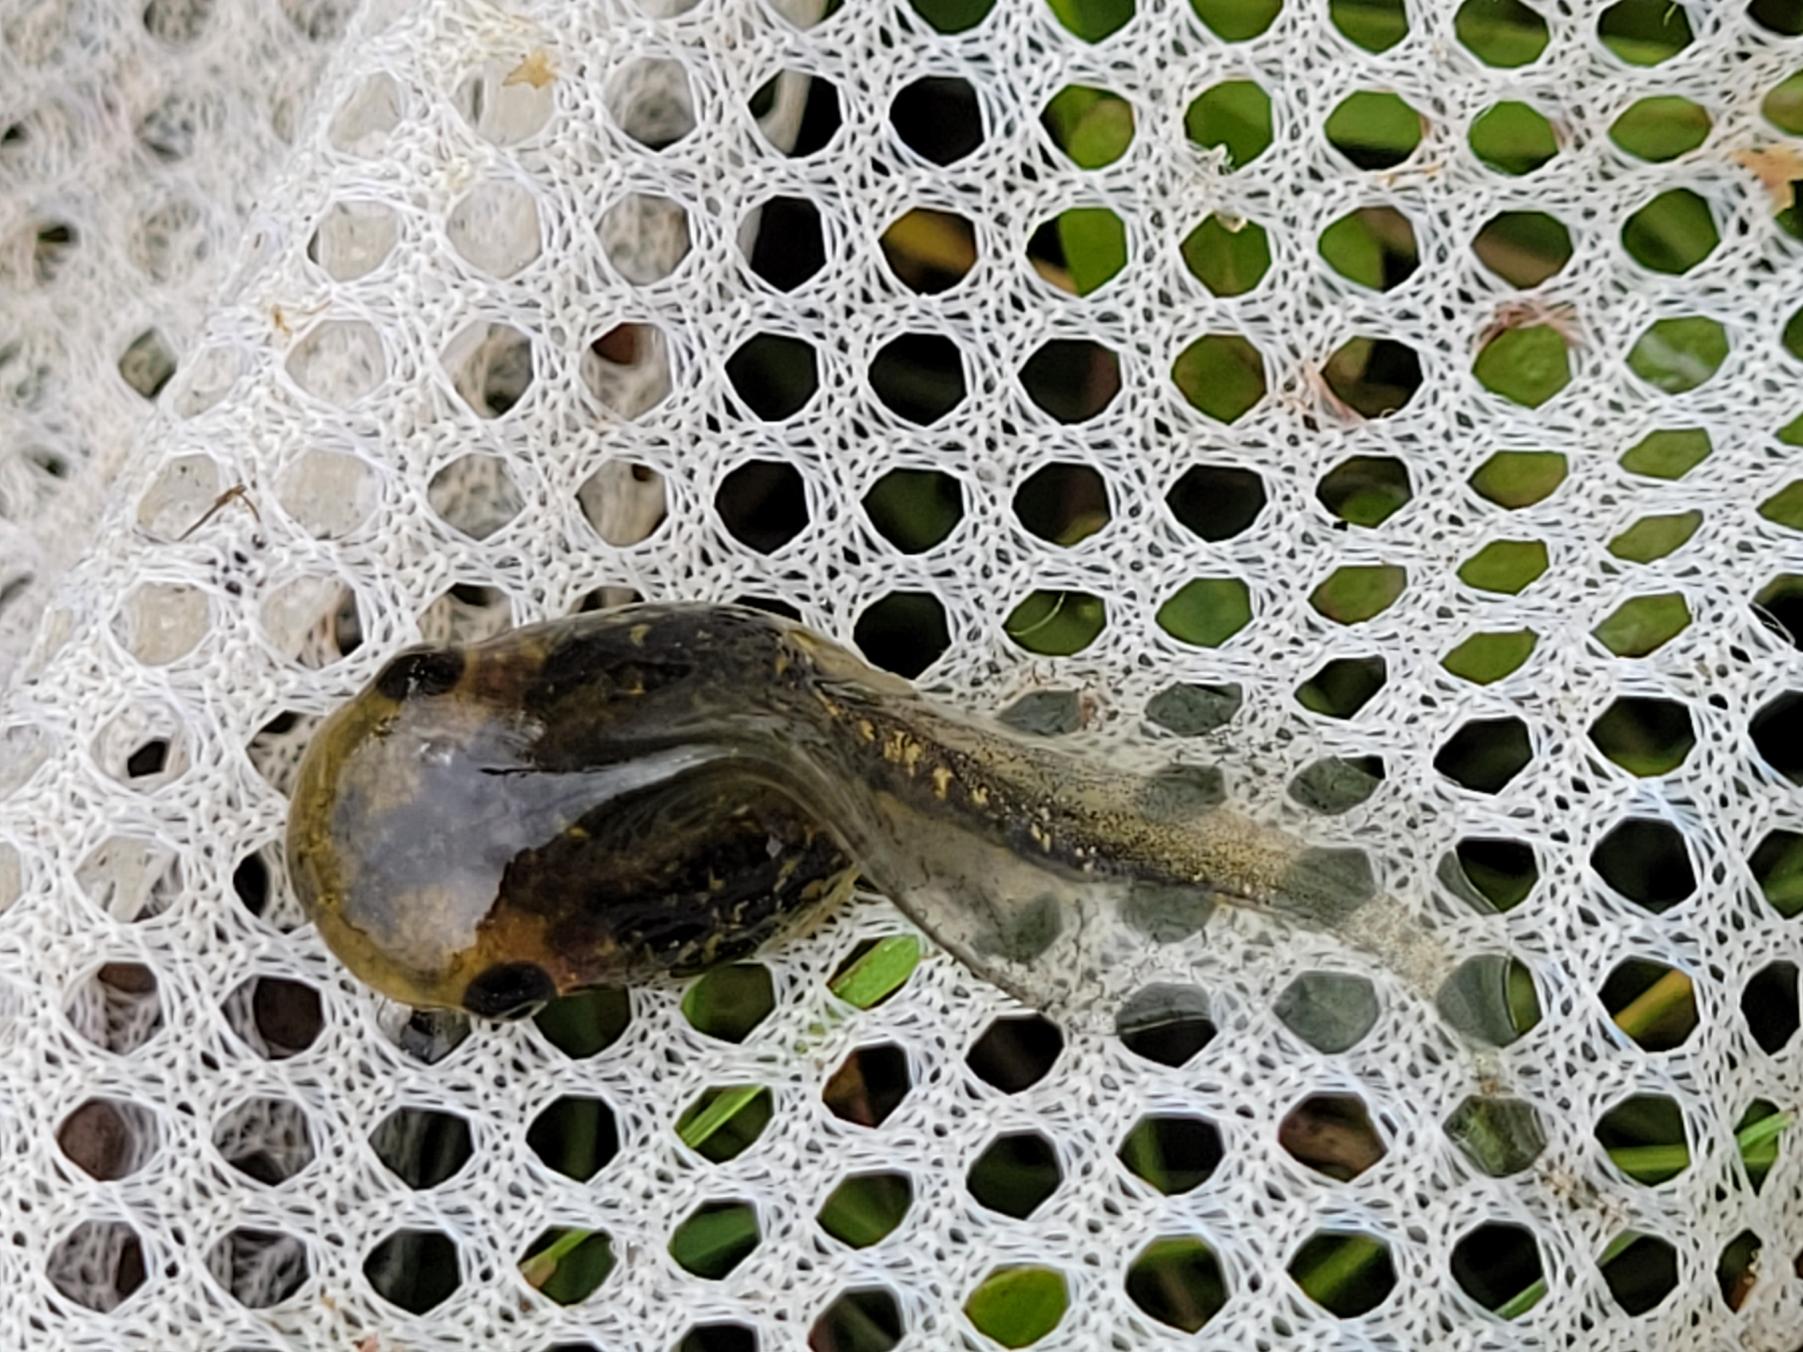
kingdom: Animalia
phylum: Chordata
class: Amphibia
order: Anura
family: Hylidae
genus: Hyla
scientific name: Hyla arborea
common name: Løvfrø
